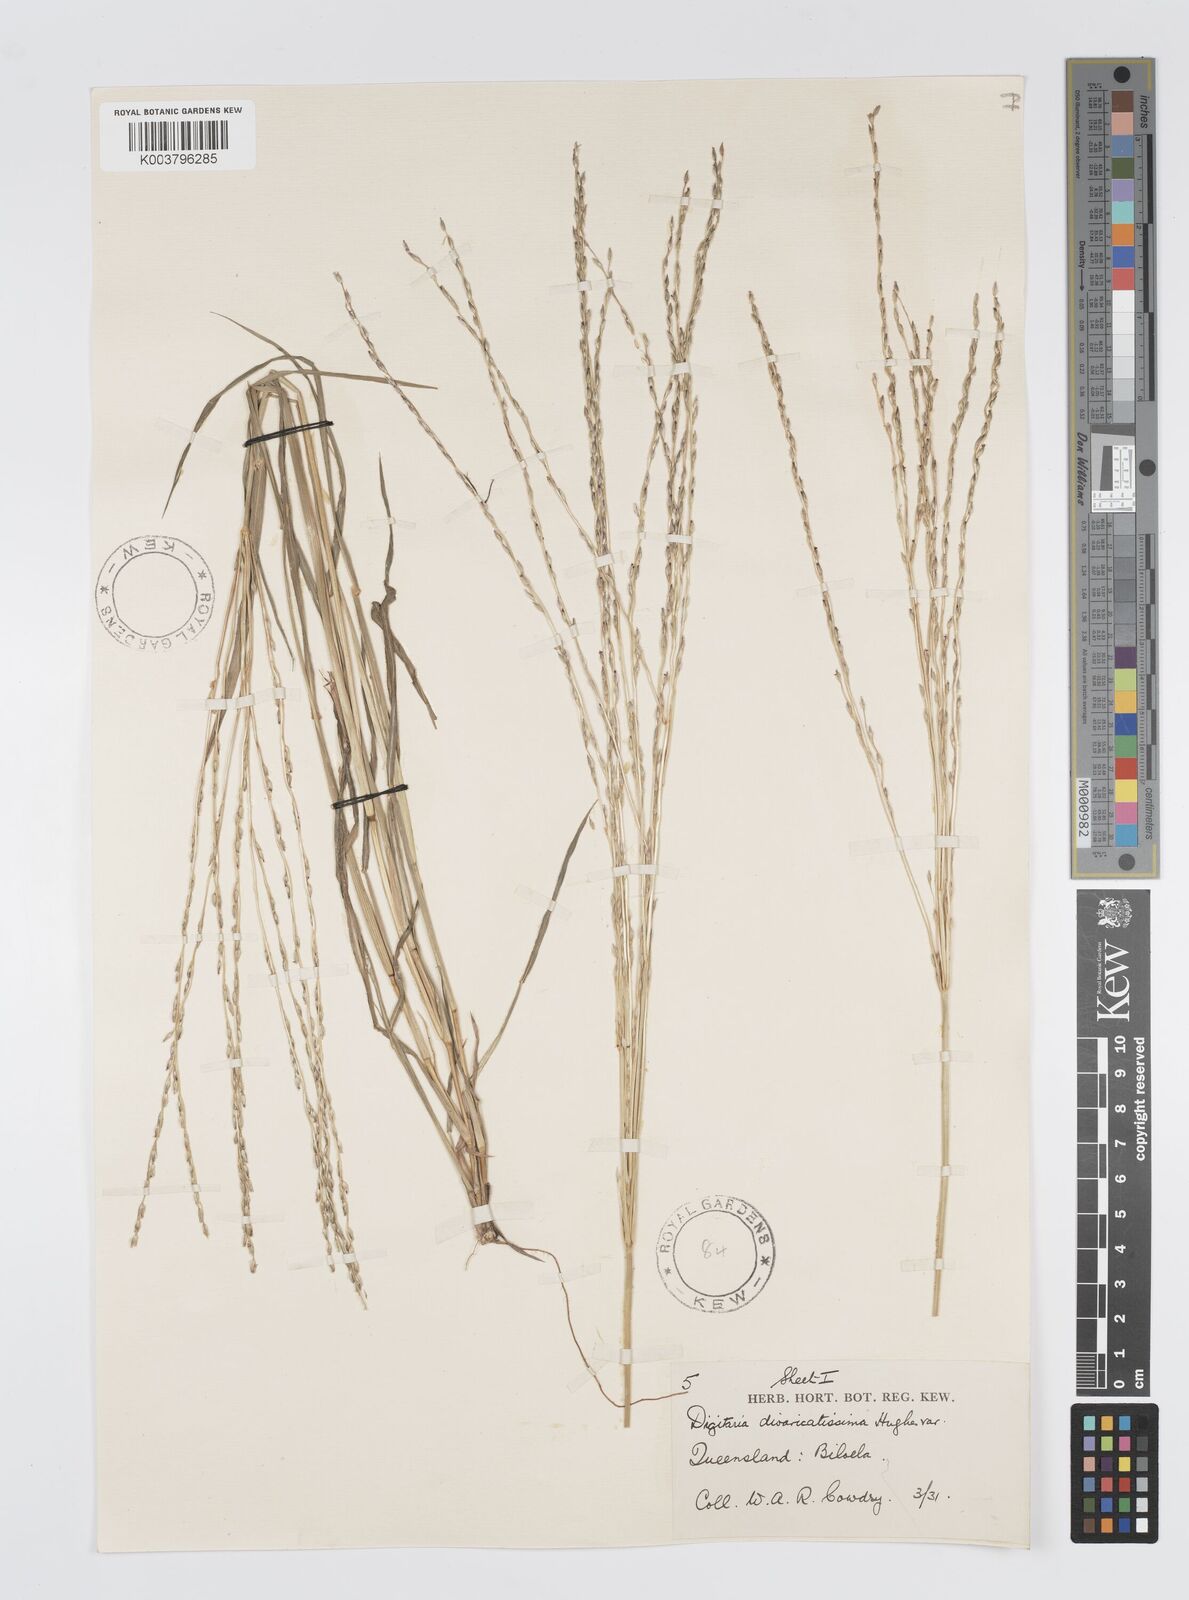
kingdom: Plantae
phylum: Tracheophyta
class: Liliopsida
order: Poales
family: Poaceae
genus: Digitaria
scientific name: Digitaria divaricatissima
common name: Crabgrass
